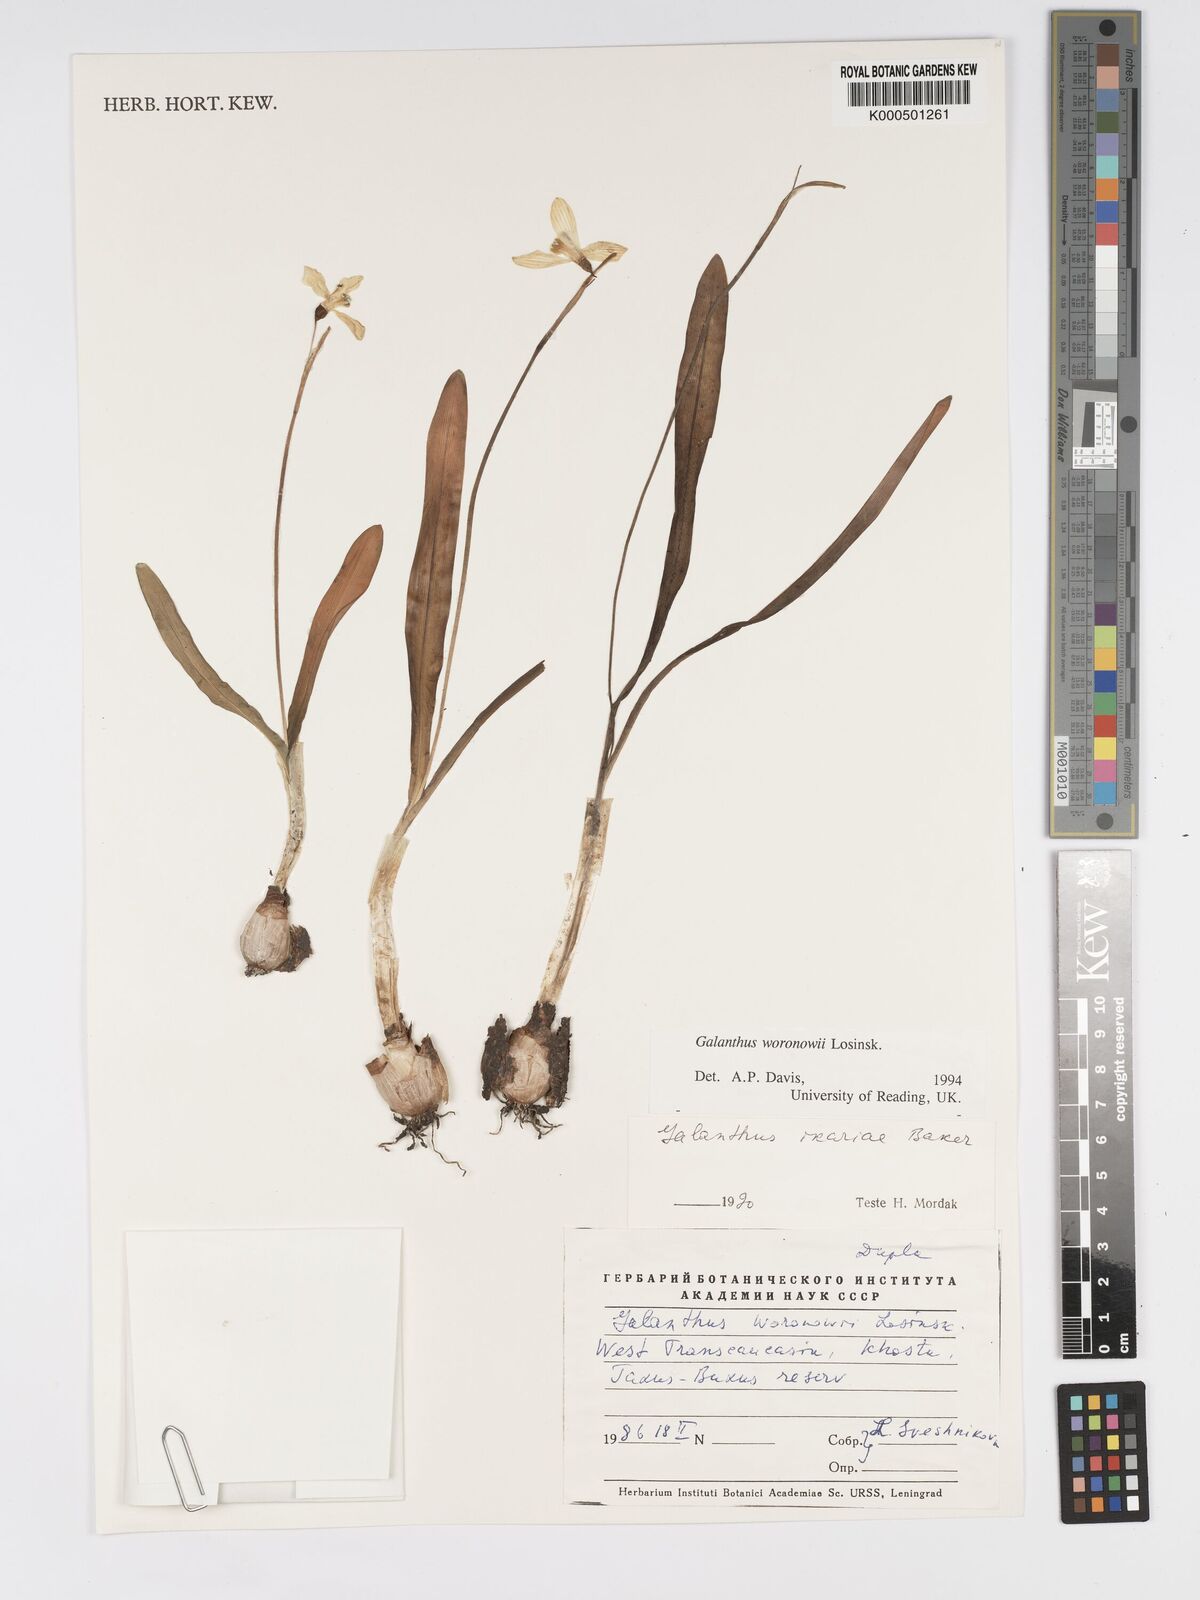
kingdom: Plantae
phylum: Tracheophyta
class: Liliopsida
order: Asparagales
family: Amaryllidaceae
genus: Galanthus
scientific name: Galanthus woronowii
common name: Green snowdrop
